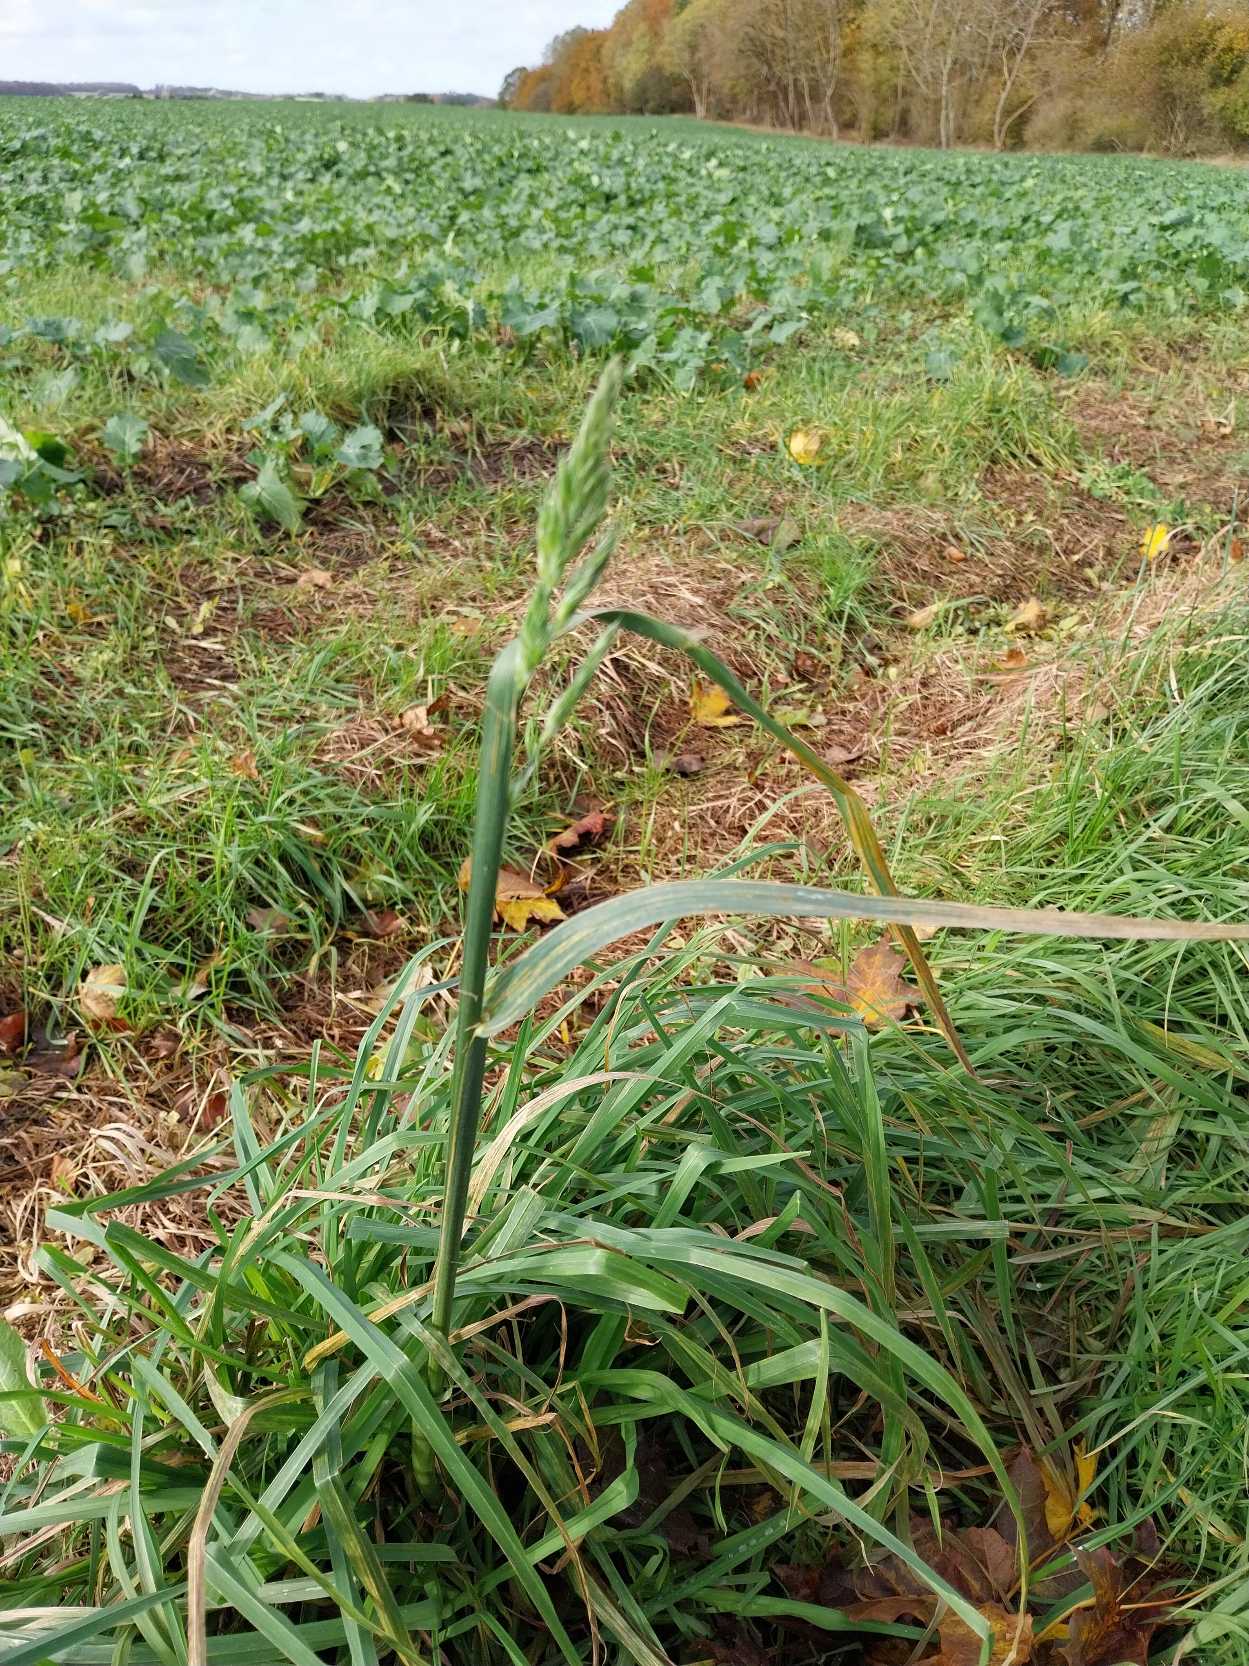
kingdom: Plantae
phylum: Tracheophyta
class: Liliopsida
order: Poales
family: Poaceae
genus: Dactylis
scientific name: Dactylis glomerata
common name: Almindelig hundegræs
